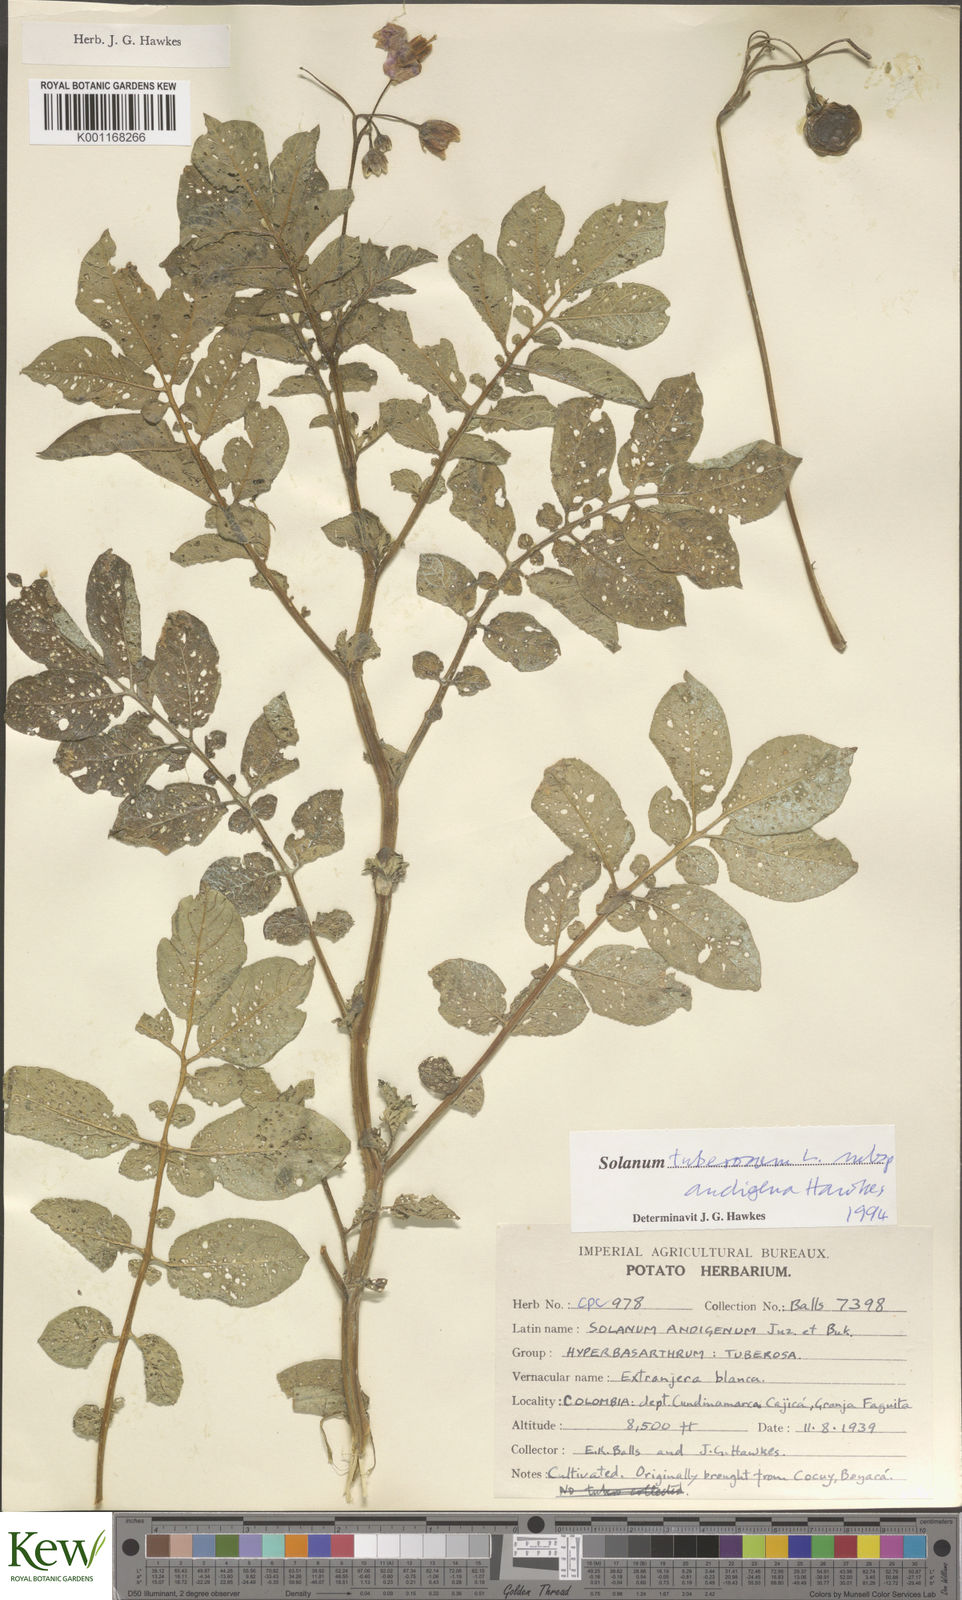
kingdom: Plantae
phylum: Tracheophyta
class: Magnoliopsida
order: Solanales
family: Solanaceae
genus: Solanum
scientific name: Solanum tuberosum
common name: Potato
